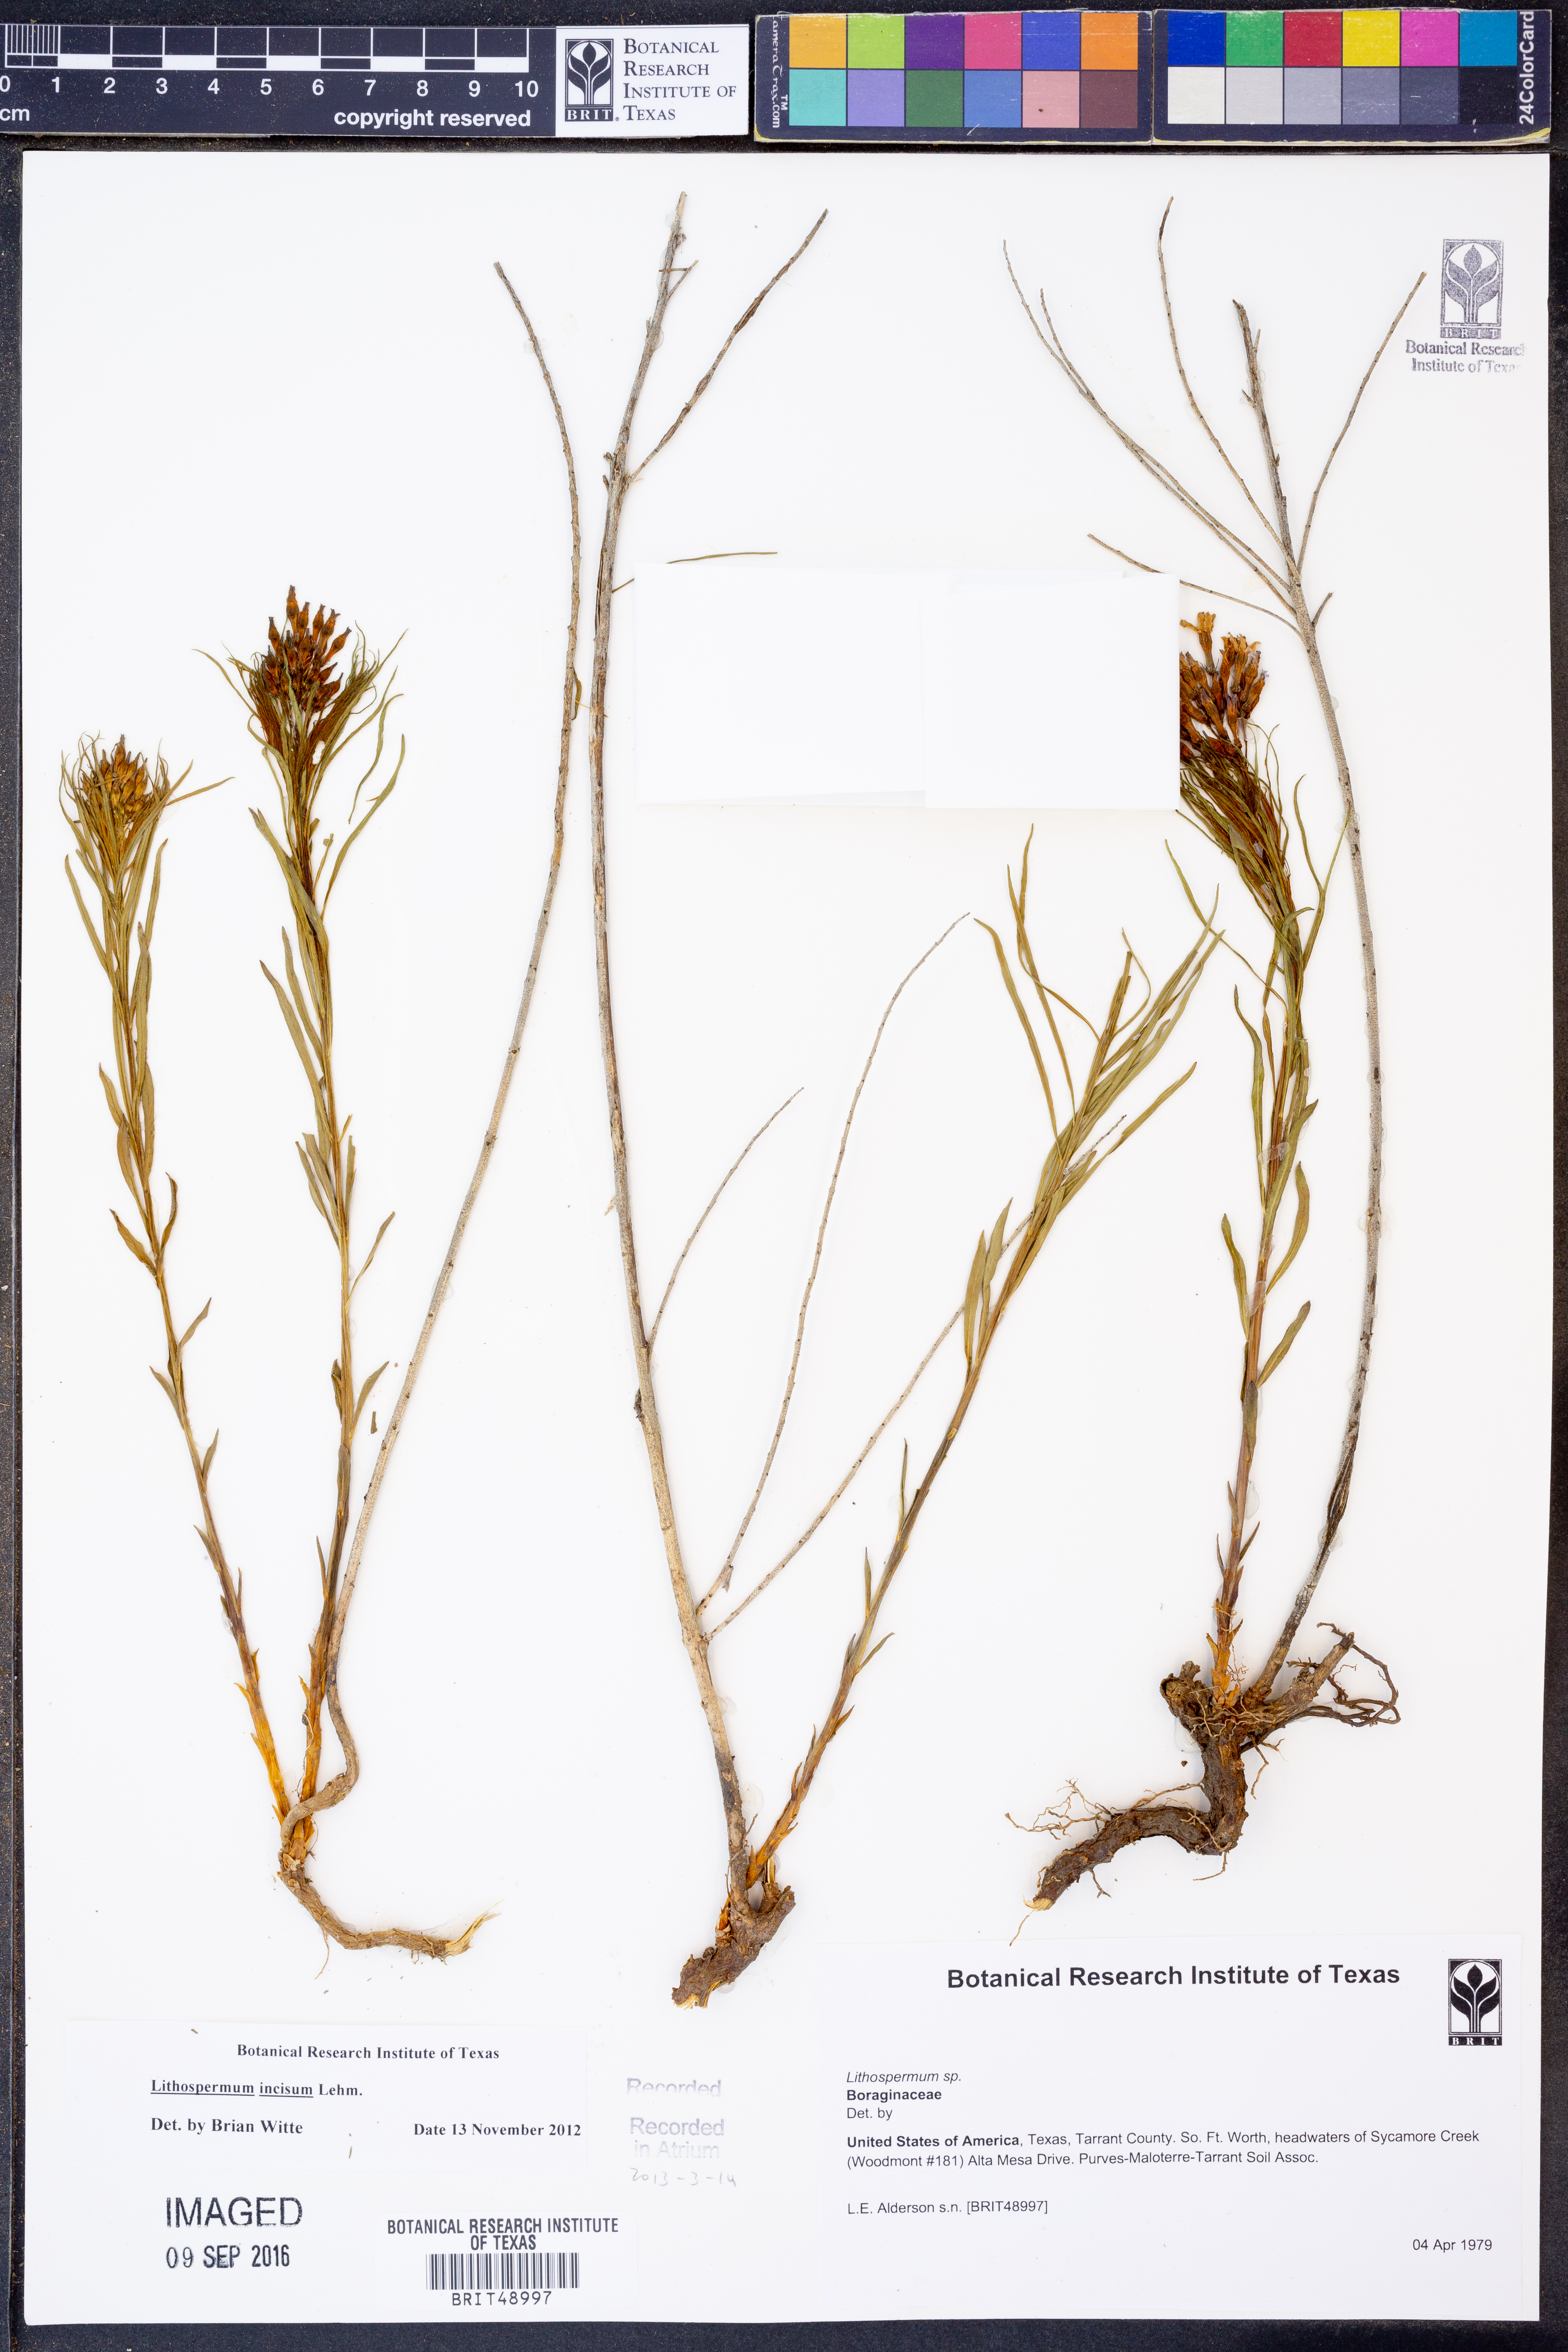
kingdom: Plantae
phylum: Tracheophyta
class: Magnoliopsida
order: Boraginales
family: Boraginaceae
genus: Lithospermum
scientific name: Lithospermum incisum
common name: Fringed gromwell
